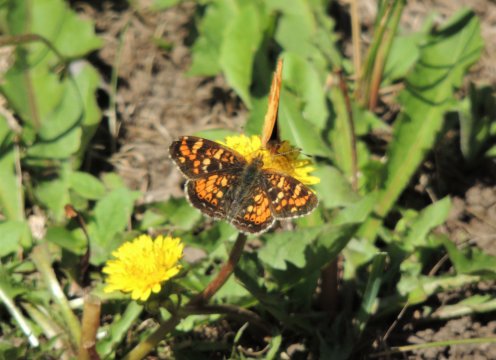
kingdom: Animalia
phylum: Arthropoda
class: Insecta
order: Lepidoptera
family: Nymphalidae
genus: Phyciodes
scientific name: Phyciodes tharos
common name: Field Crescent
